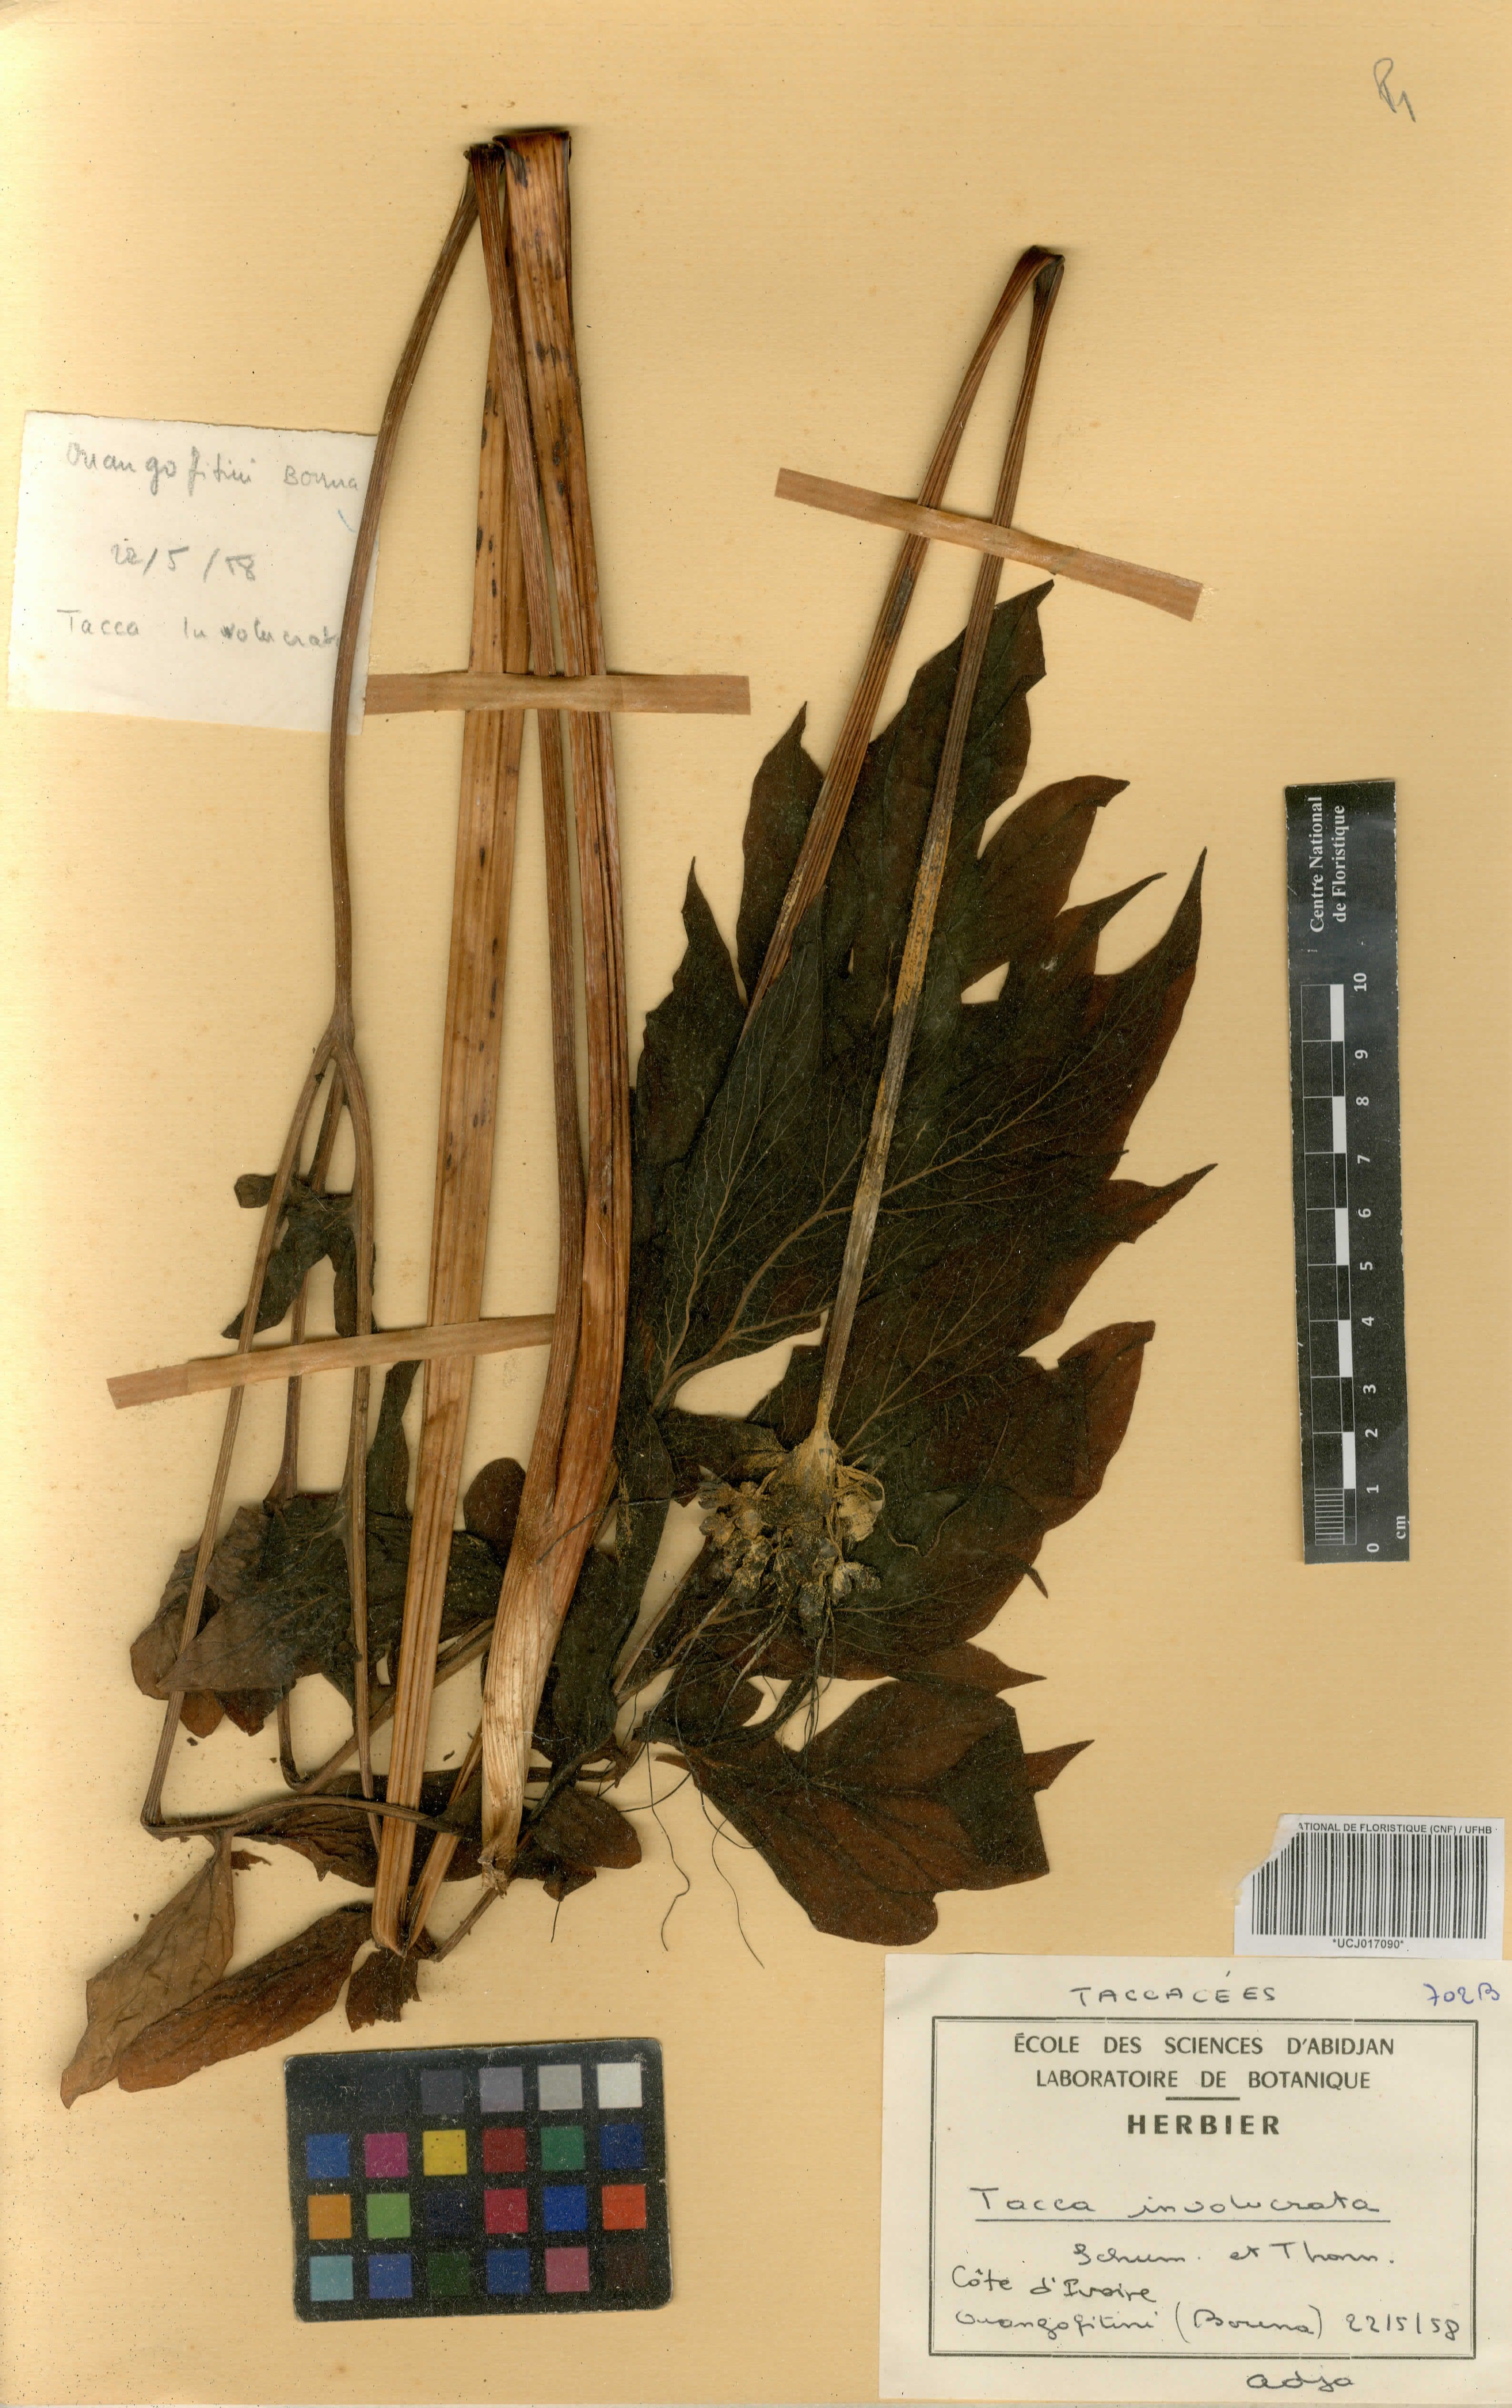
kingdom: Plantae
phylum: Tracheophyta
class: Liliopsida
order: Dioscoreales
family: Dioscoreaceae
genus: Tacca
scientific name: Tacca leontopetaloides
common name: Arrowroot
